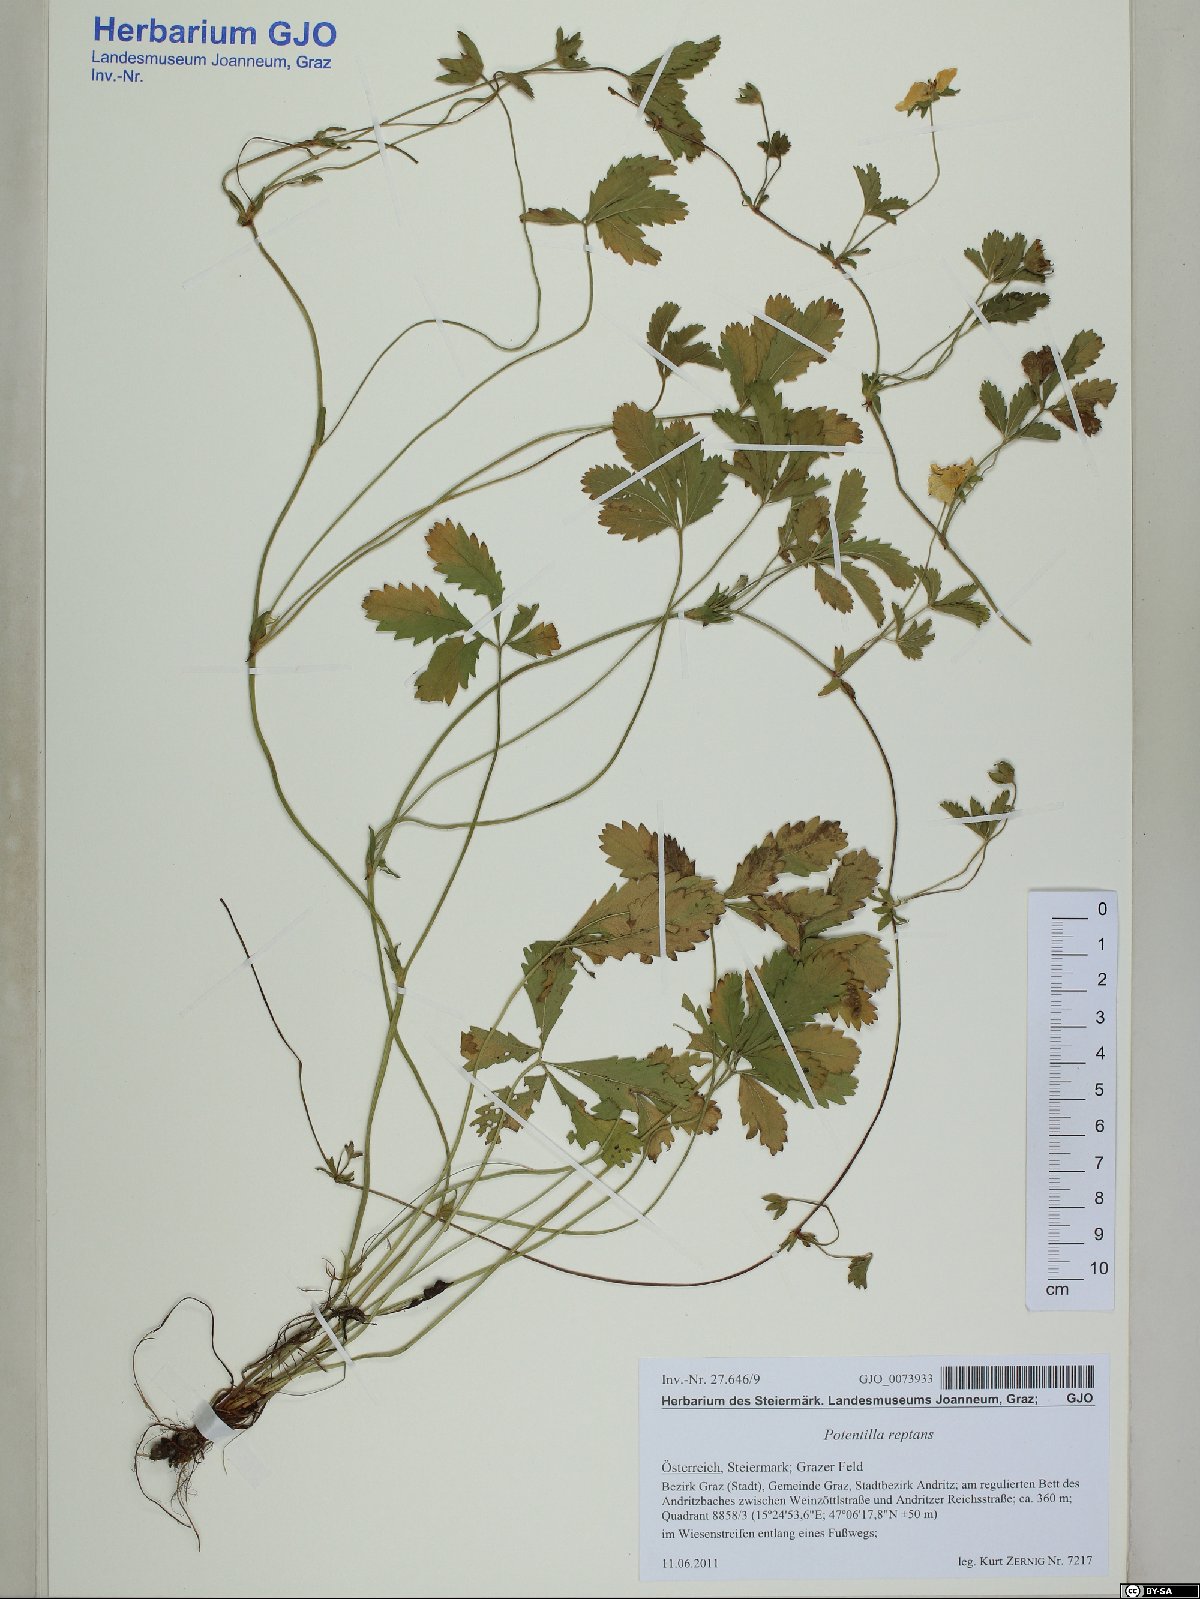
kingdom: Plantae
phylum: Tracheophyta
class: Magnoliopsida
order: Rosales
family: Rosaceae
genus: Potentilla
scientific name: Potentilla reptans
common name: Creeping cinquefoil
